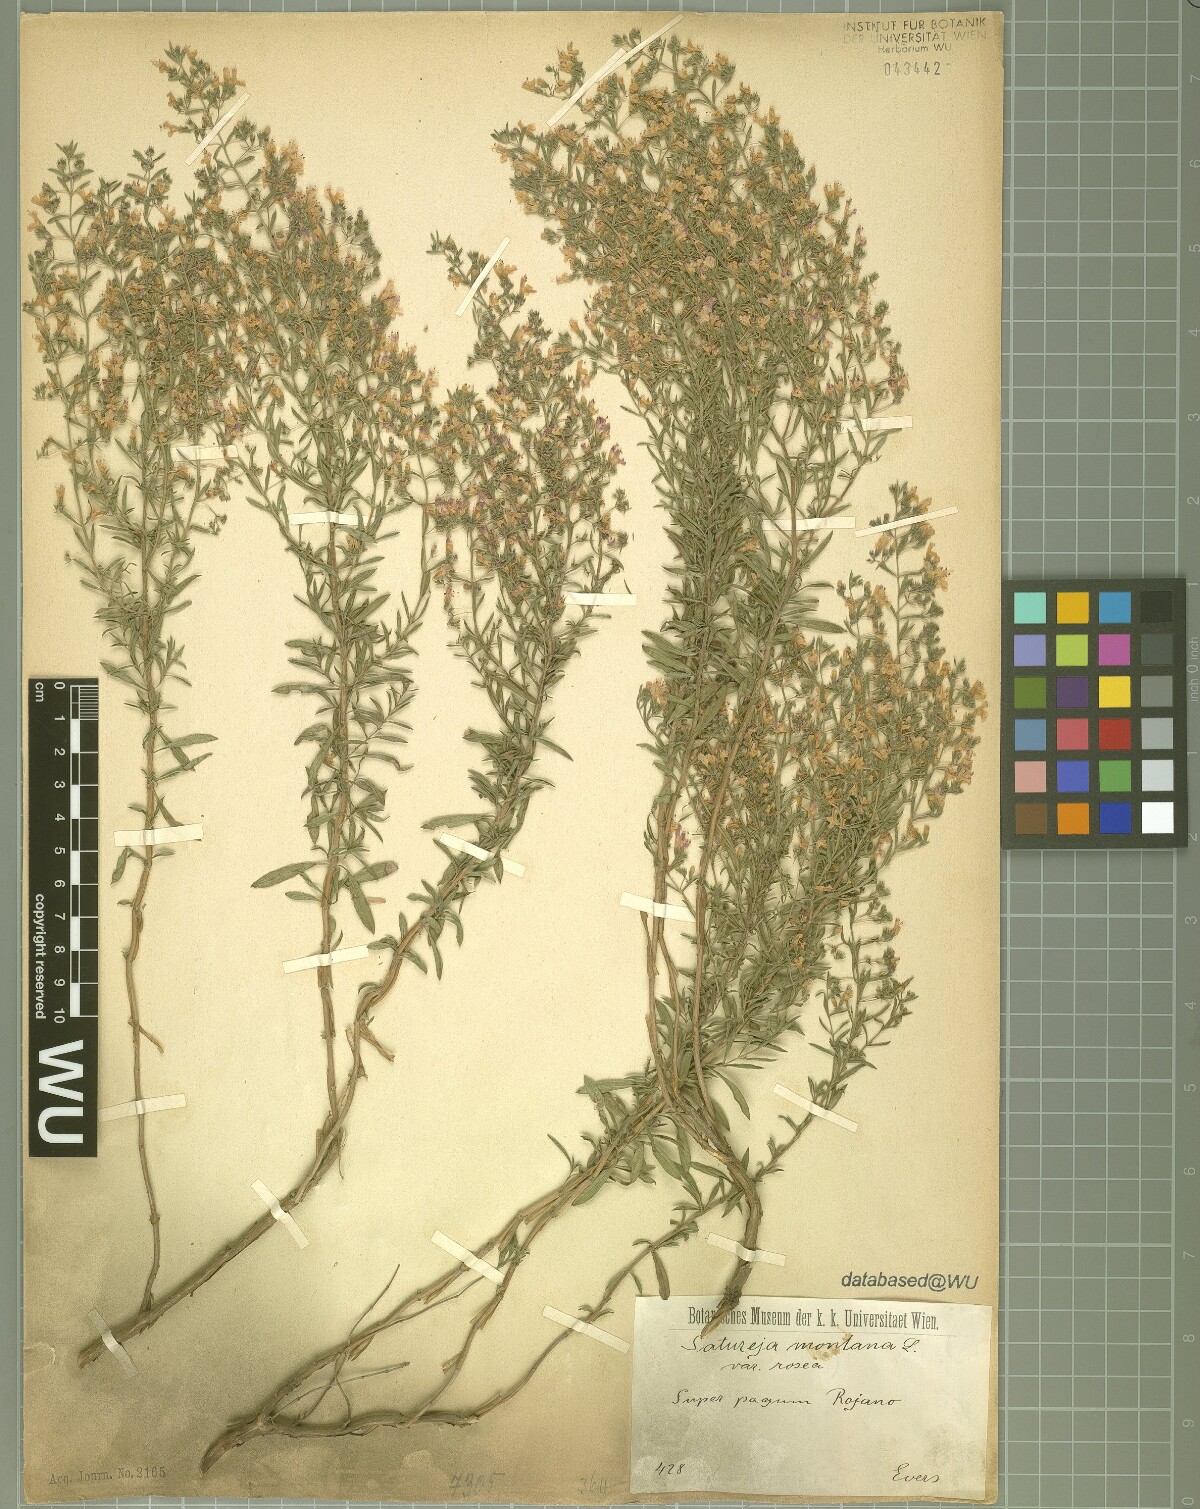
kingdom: Plantae
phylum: Tracheophyta
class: Magnoliopsida
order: Lamiales
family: Lamiaceae
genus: Satureja
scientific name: Satureja montana
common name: Winter savory
